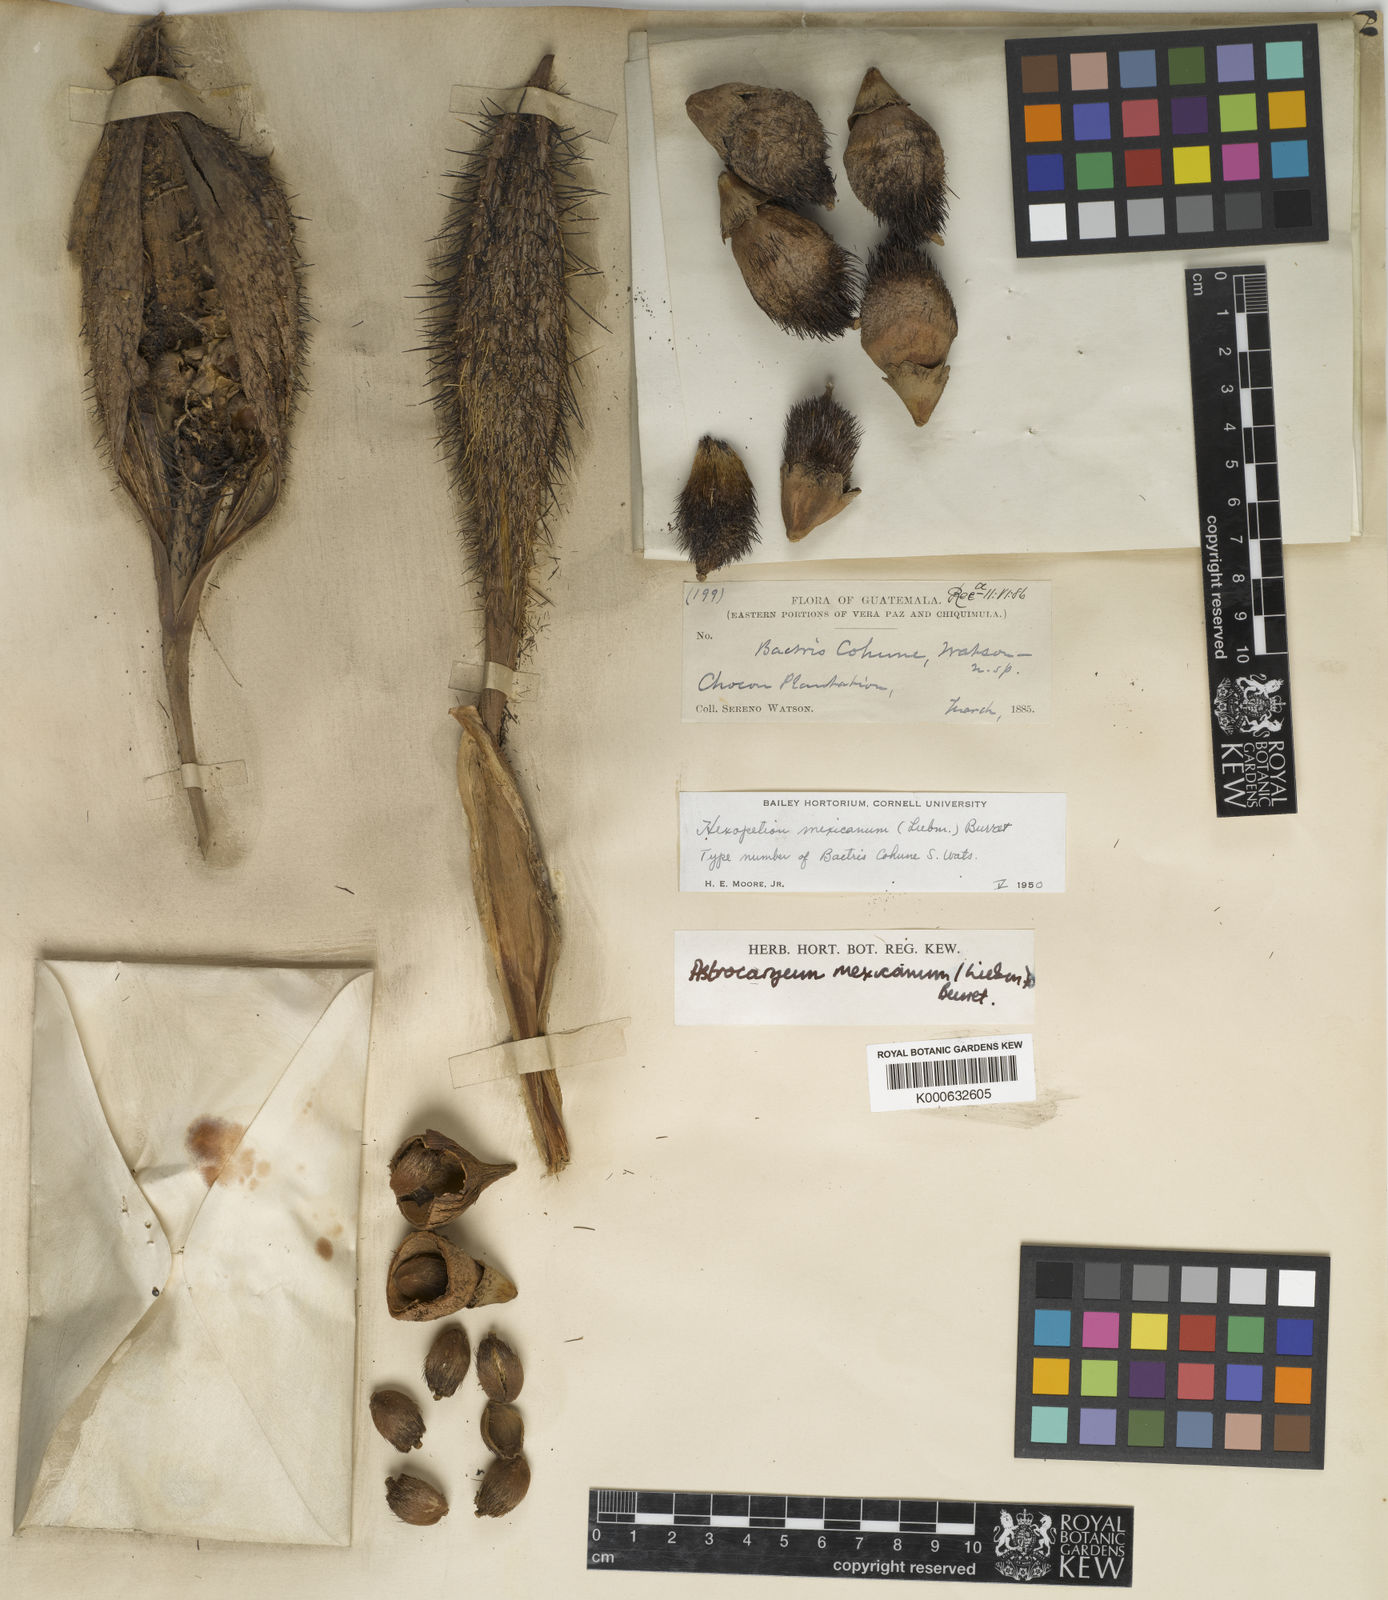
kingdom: Plantae
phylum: Tracheophyta
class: Liliopsida
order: Arecales
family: Arecaceae
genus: Astrocaryum
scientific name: Astrocaryum
